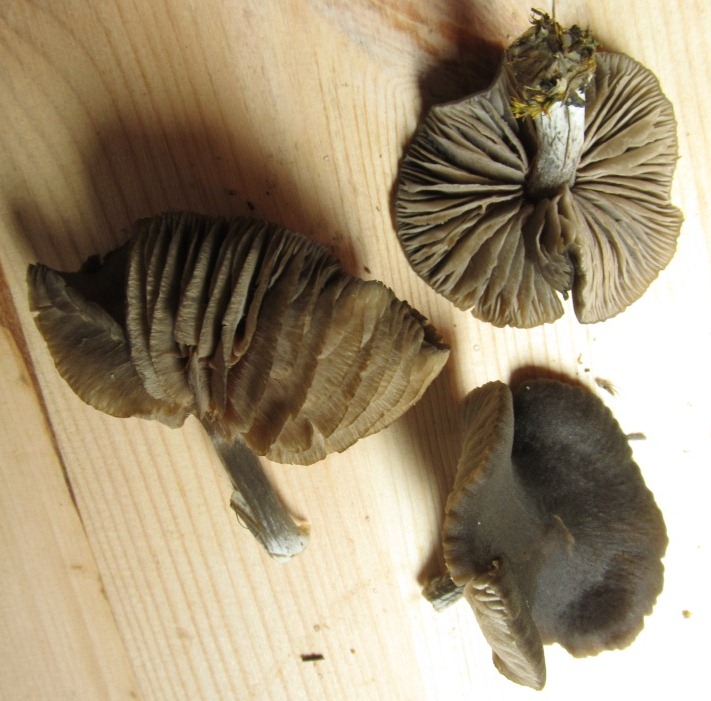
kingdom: Fungi
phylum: Basidiomycota
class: Agaricomycetes
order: Agaricales
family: Entolomataceae
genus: Entoloma
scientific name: Entoloma
